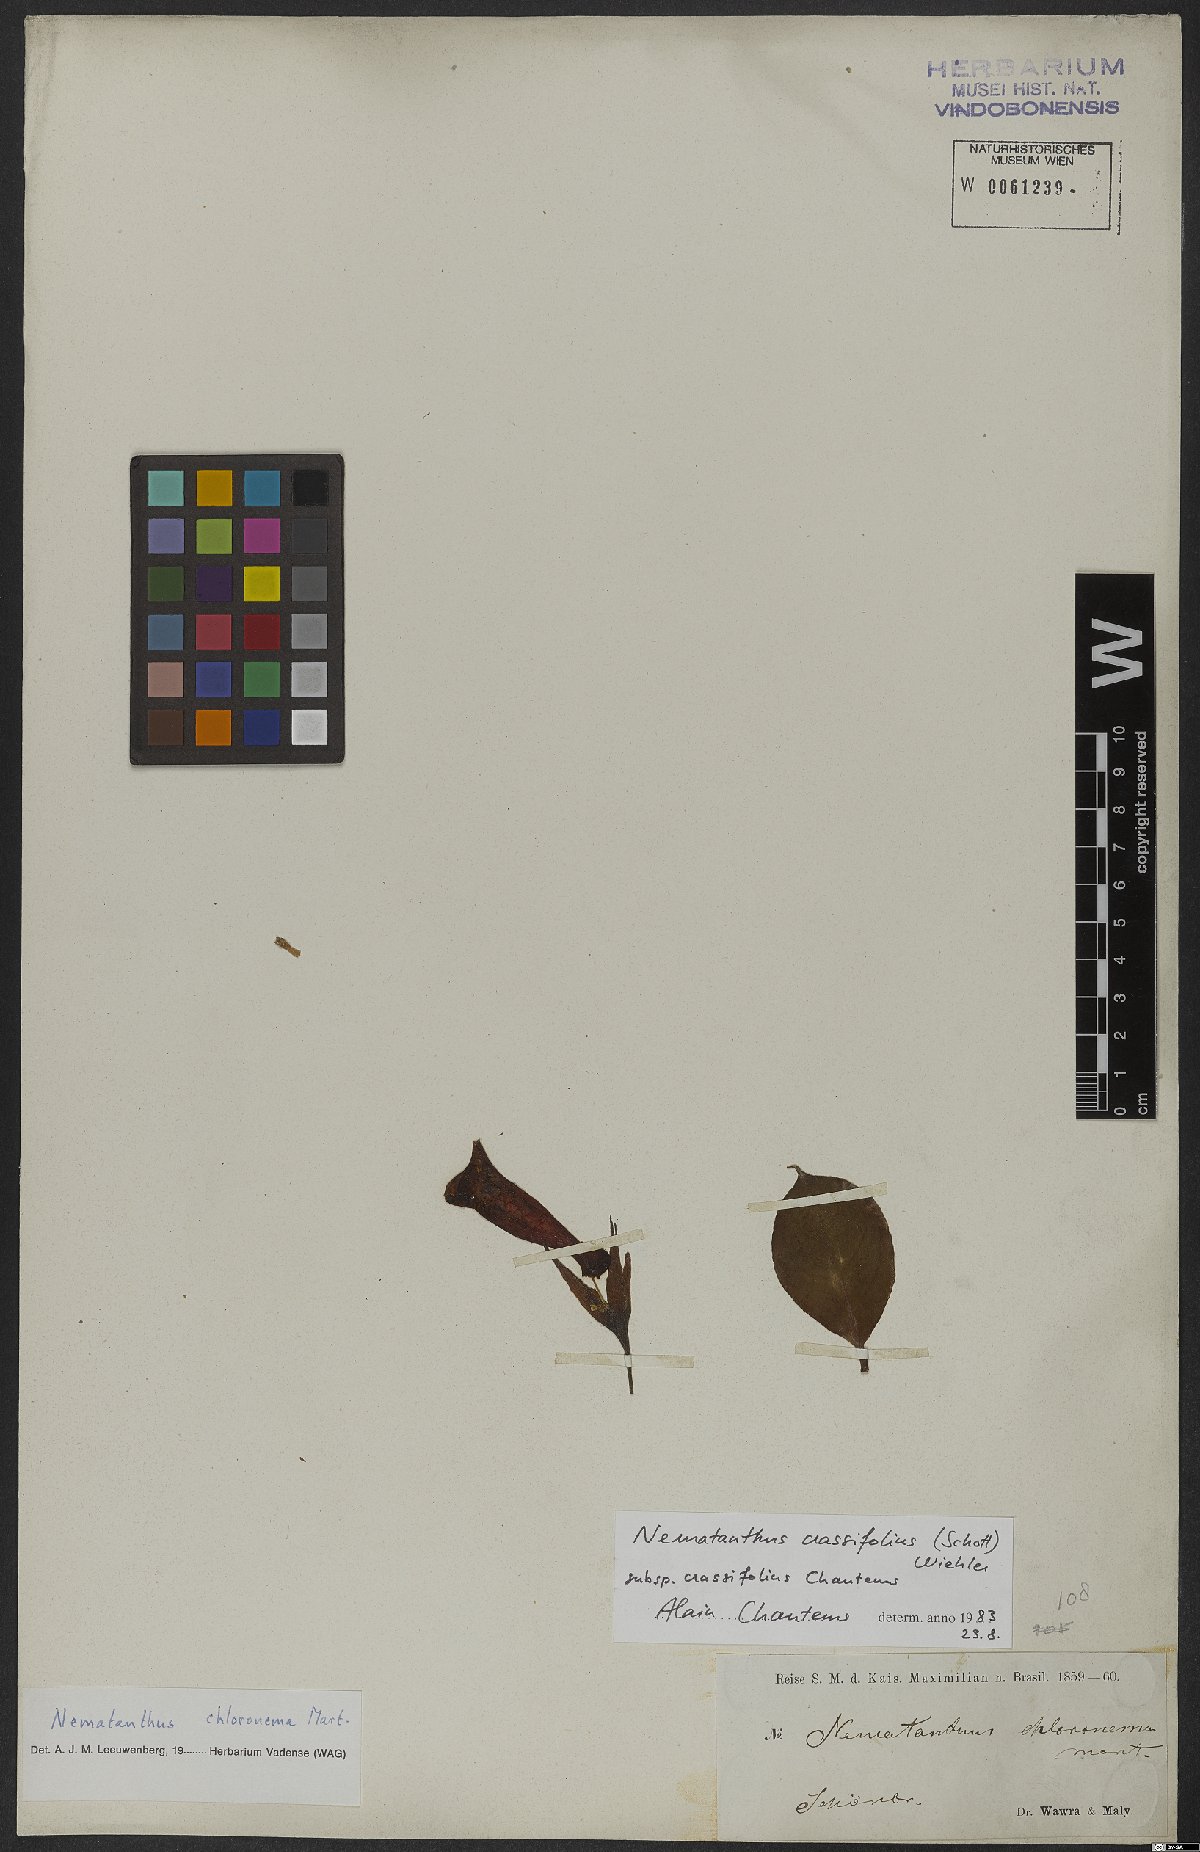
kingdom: Plantae
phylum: Tracheophyta
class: Magnoliopsida
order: Lamiales
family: Gesneriaceae
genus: Nematanthus
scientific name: Nematanthus crassifolius
